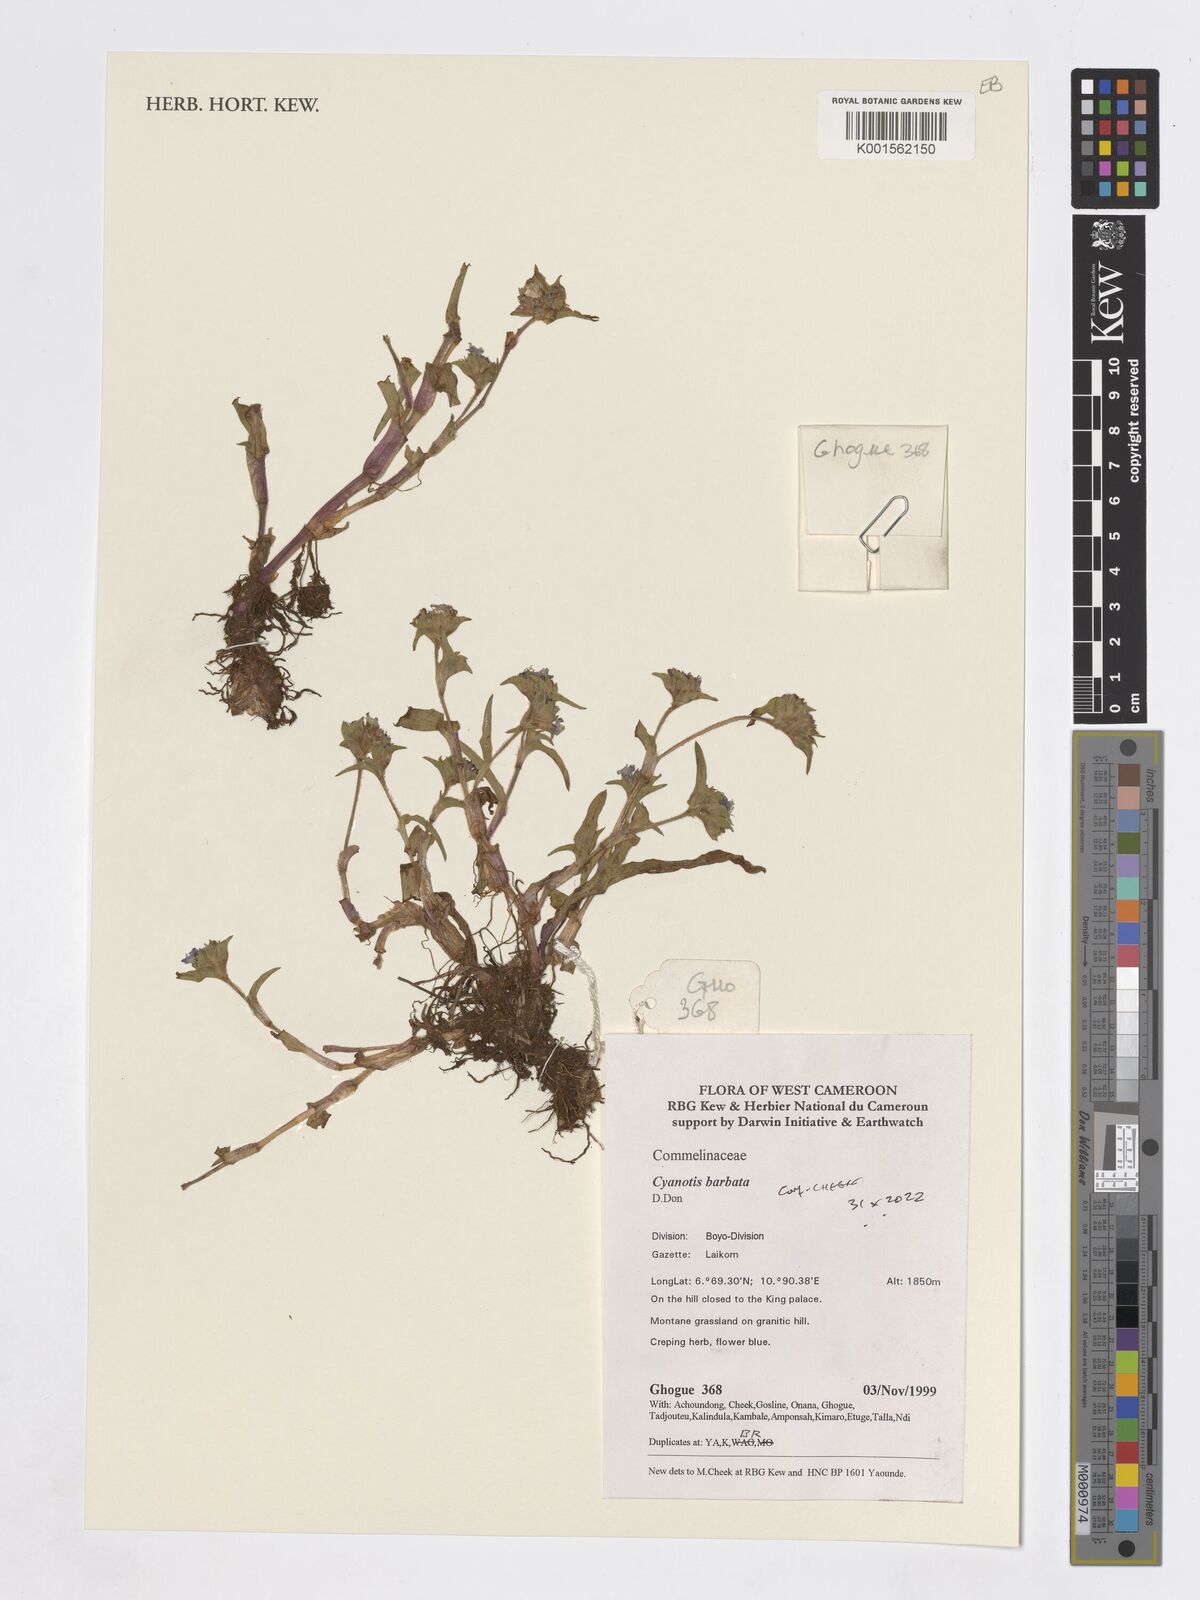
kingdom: Plantae
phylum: Tracheophyta
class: Liliopsida
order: Commelinales
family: Commelinaceae
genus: Cyanotis
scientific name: Cyanotis vaga
